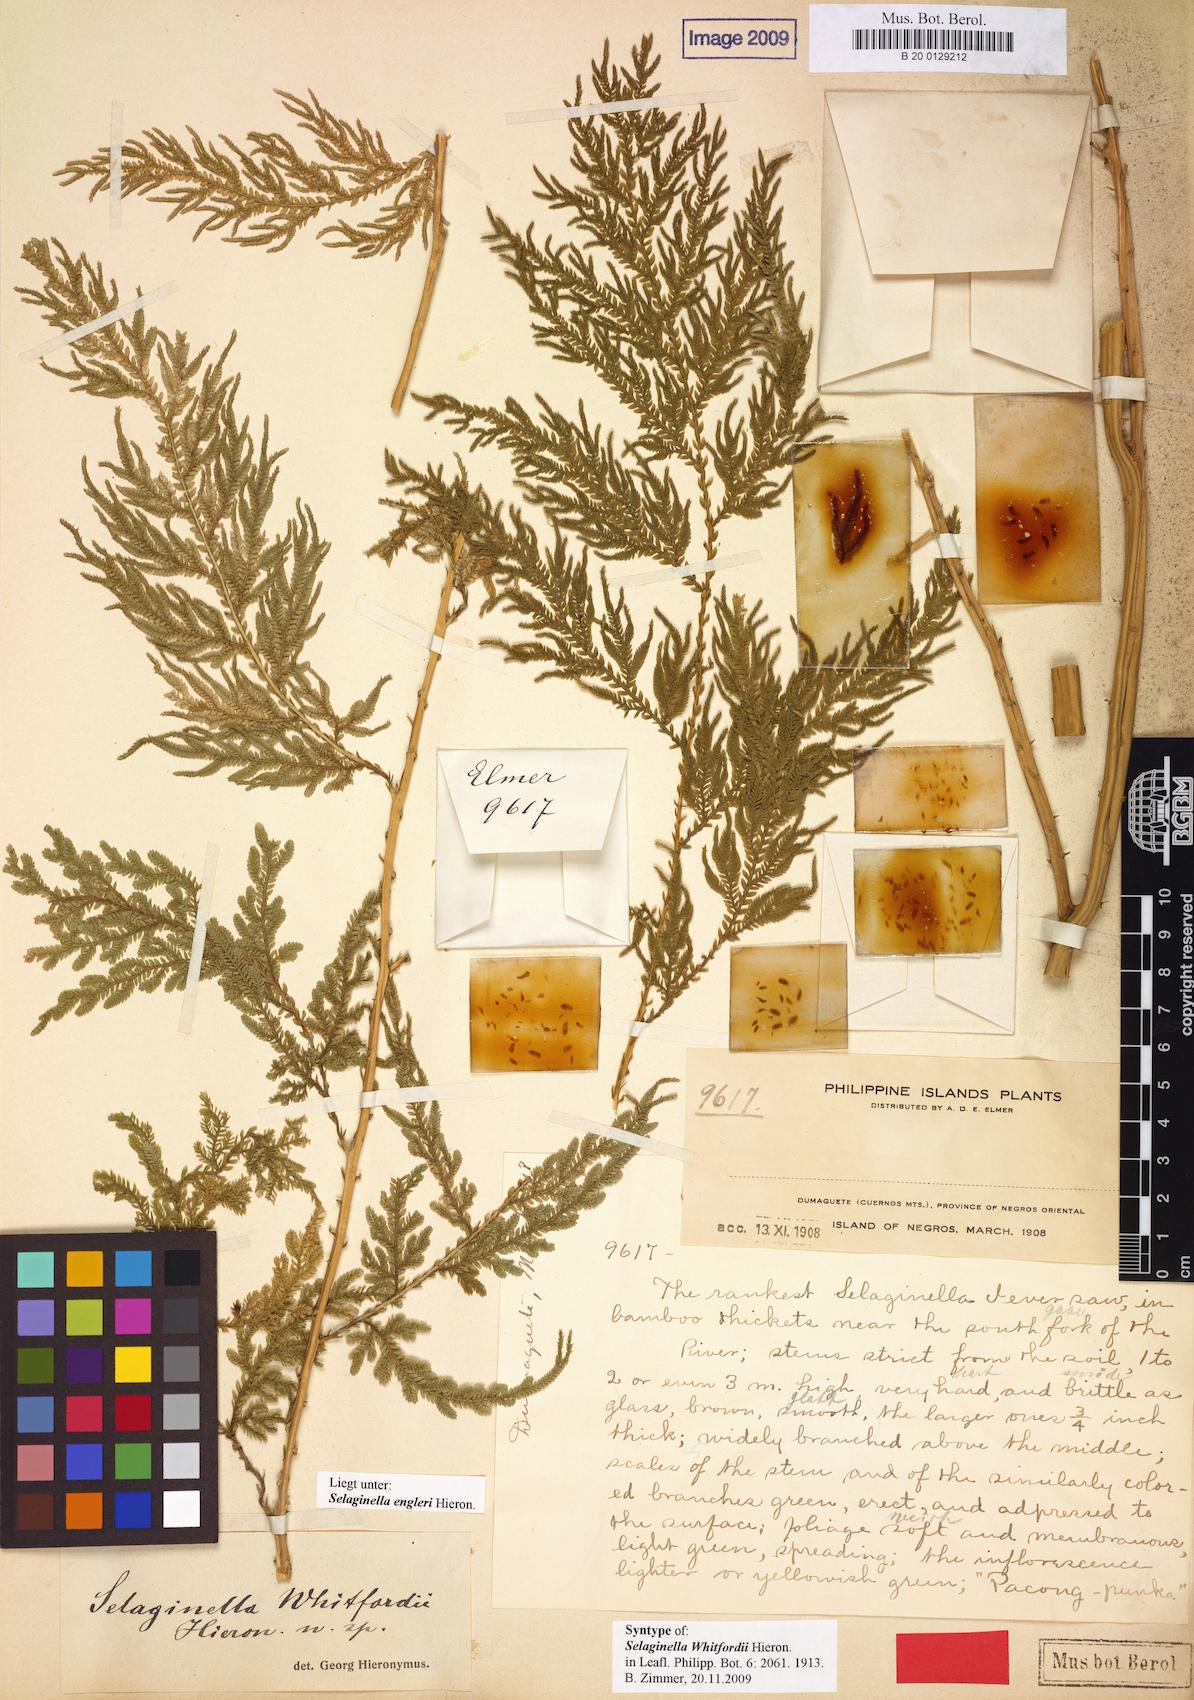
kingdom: Plantae
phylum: Tracheophyta
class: Lycopodiopsida
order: Selaginellales
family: Selaginellaceae
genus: Selaginella
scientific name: Selaginella engleri
